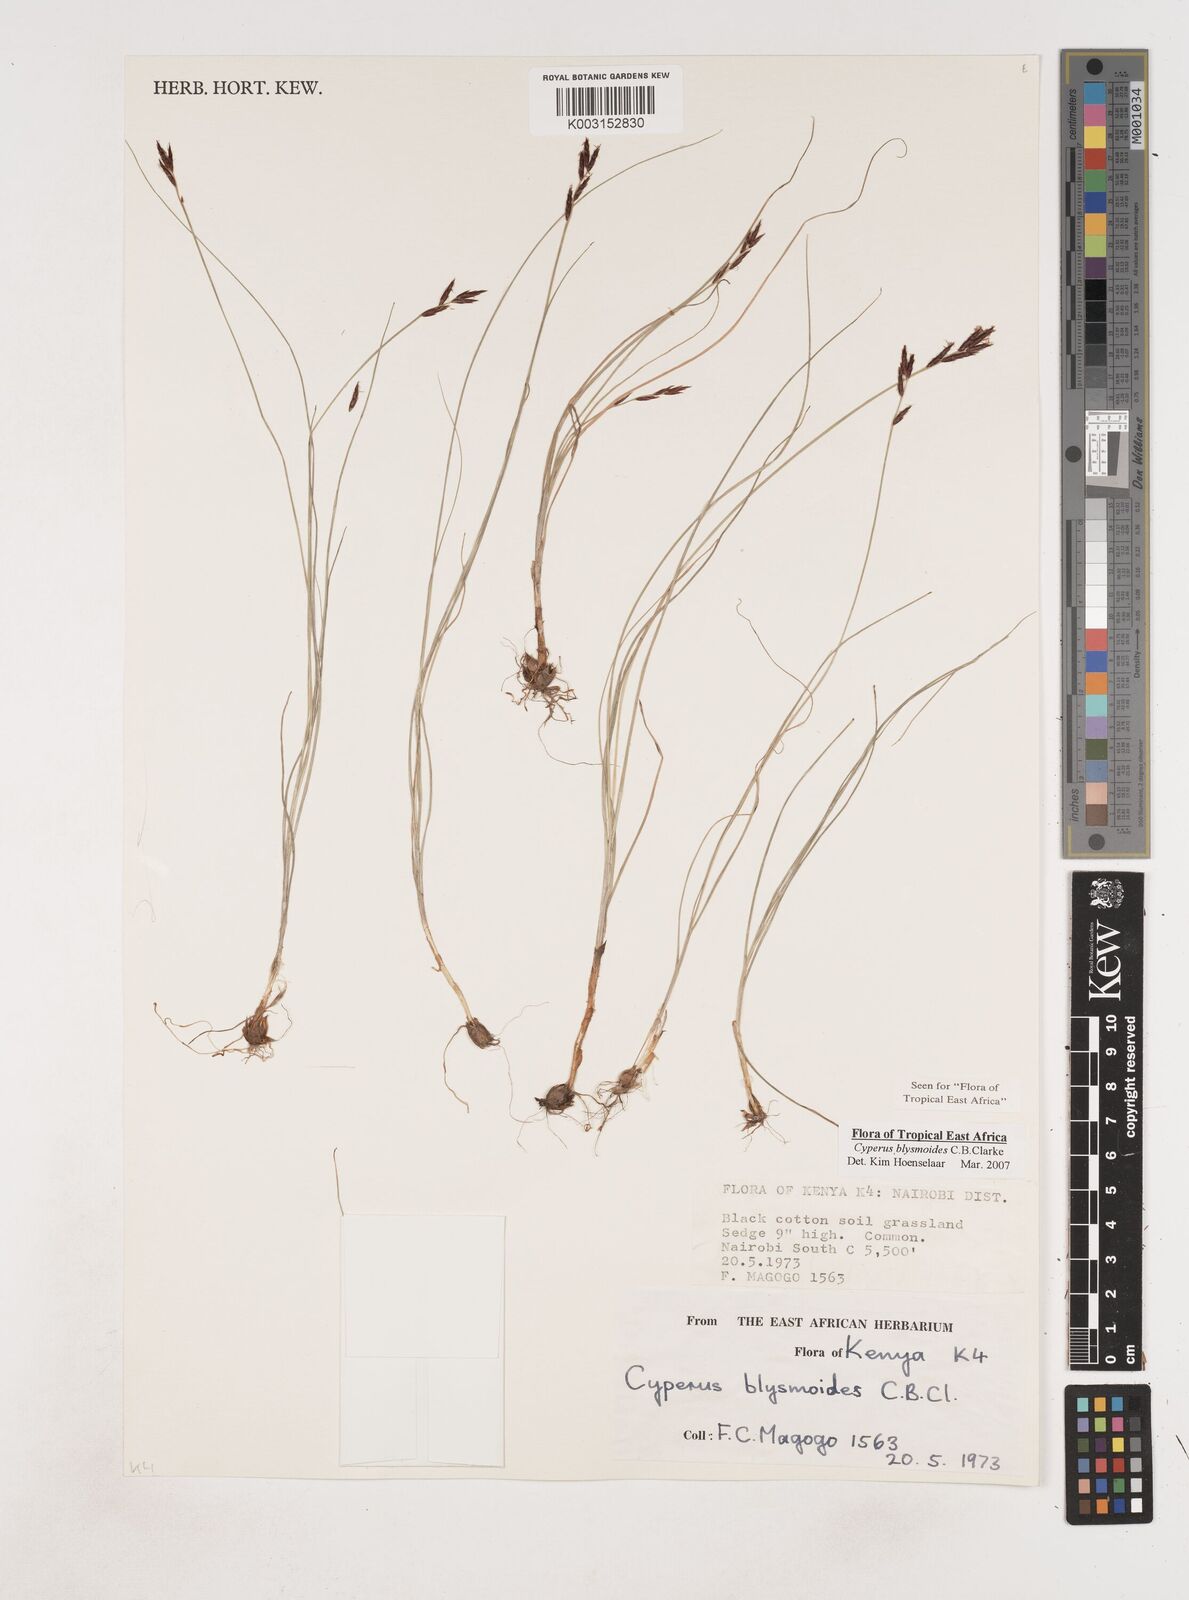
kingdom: Plantae
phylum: Tracheophyta
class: Liliopsida
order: Poales
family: Cyperaceae
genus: Cyperus
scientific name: Cyperus blysmoides
